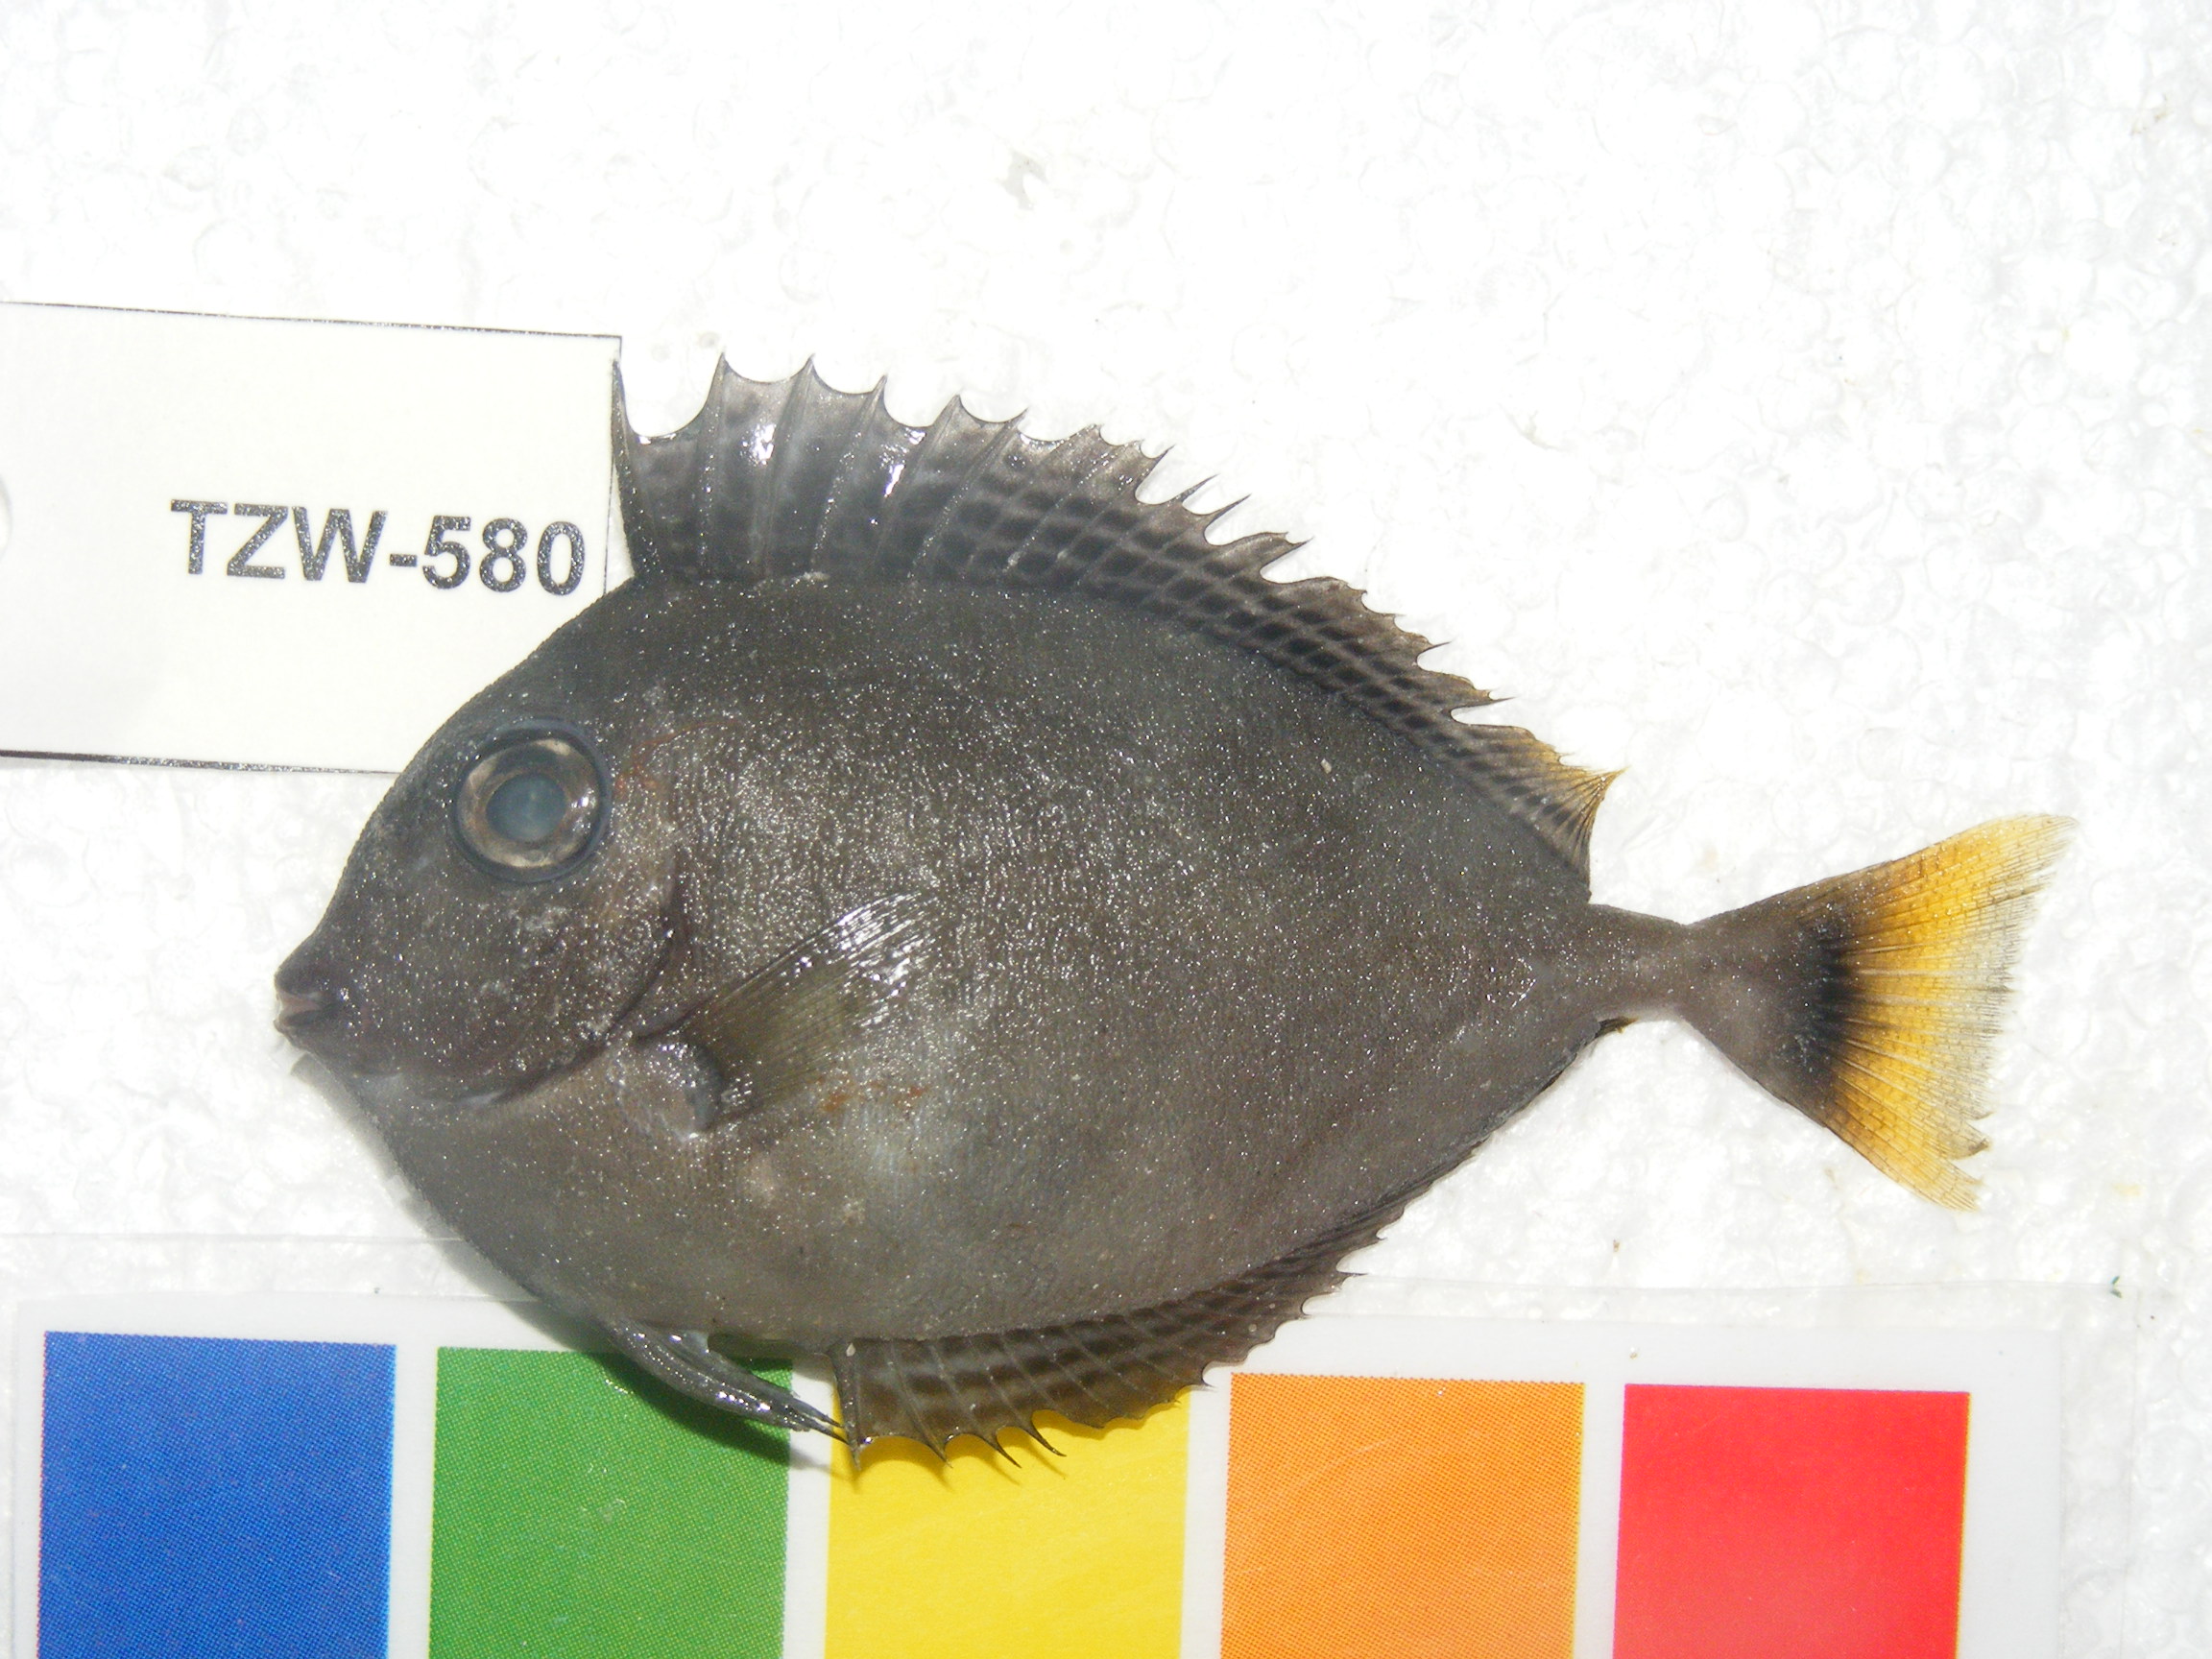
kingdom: Animalia
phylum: Chordata
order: Perciformes
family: Acanthuridae
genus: Naso
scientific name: Naso brevirostris
